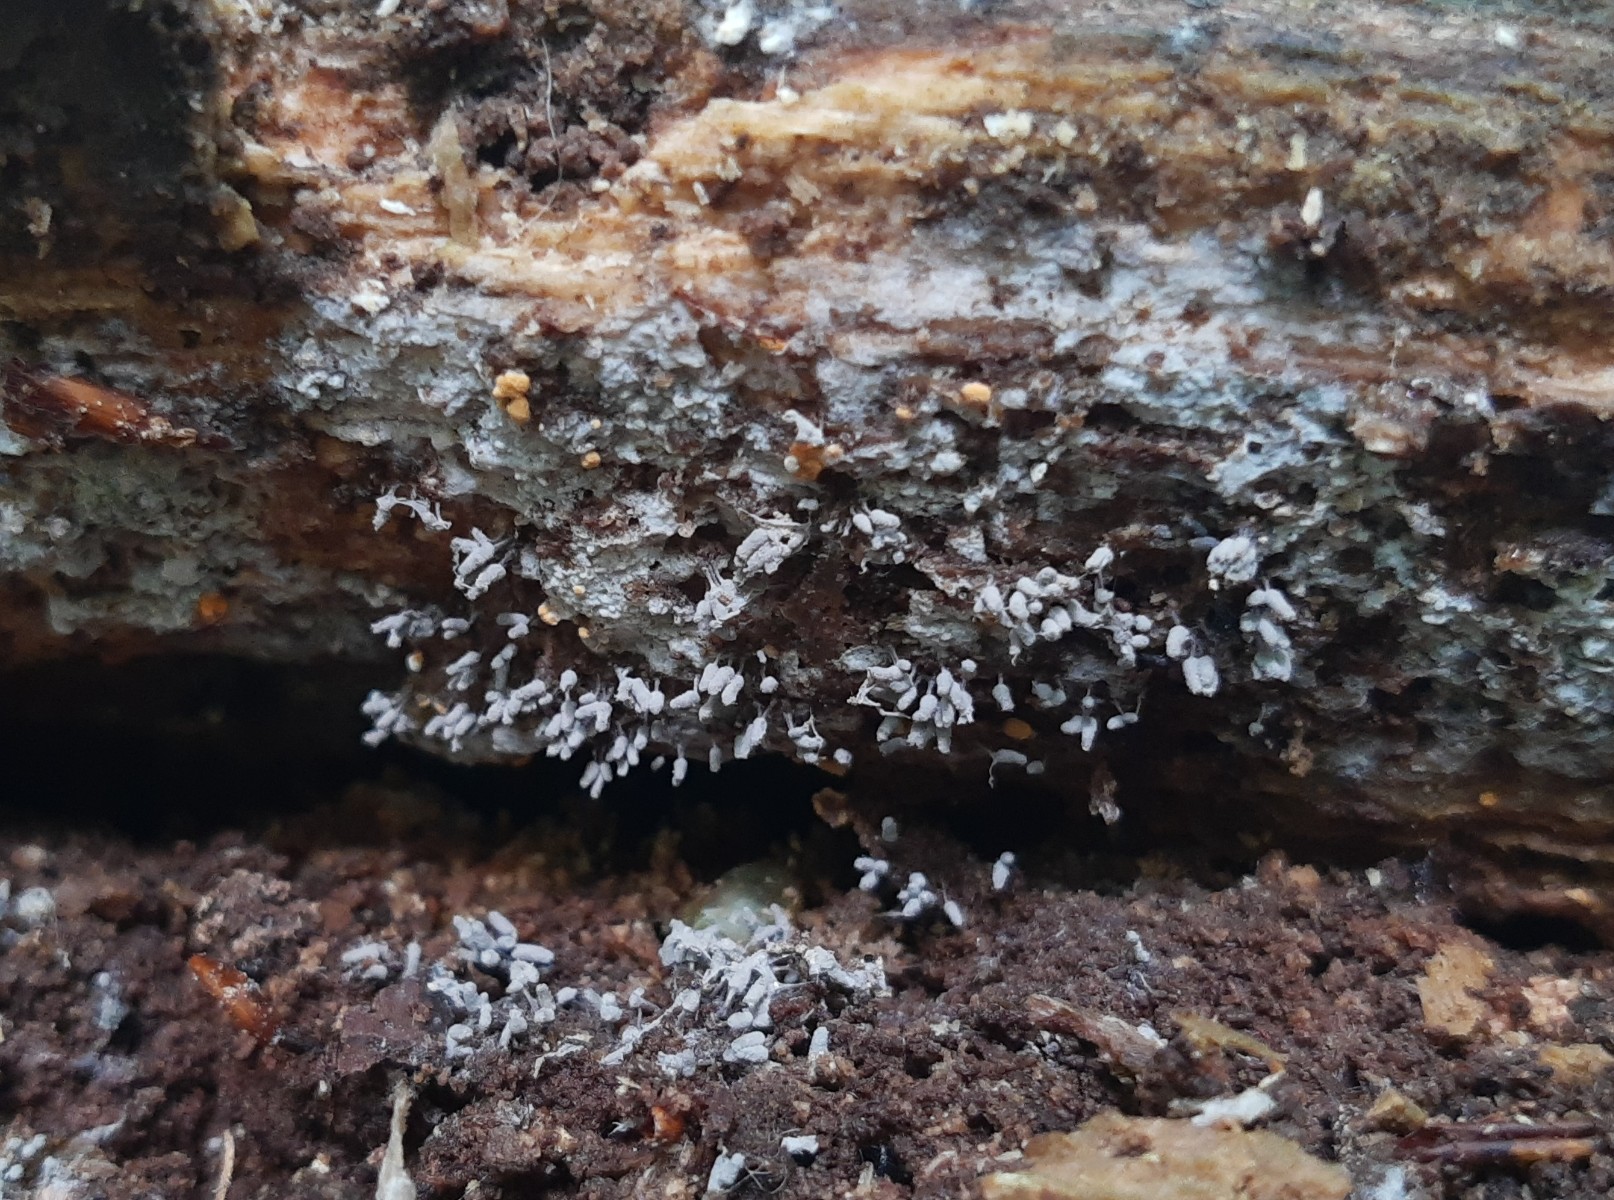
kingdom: Protozoa
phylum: Mycetozoa
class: Myxomycetes
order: Trichiales
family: Arcyriaceae
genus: Arcyria
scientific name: Arcyria cinerea
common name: White carnival candy slime mold
